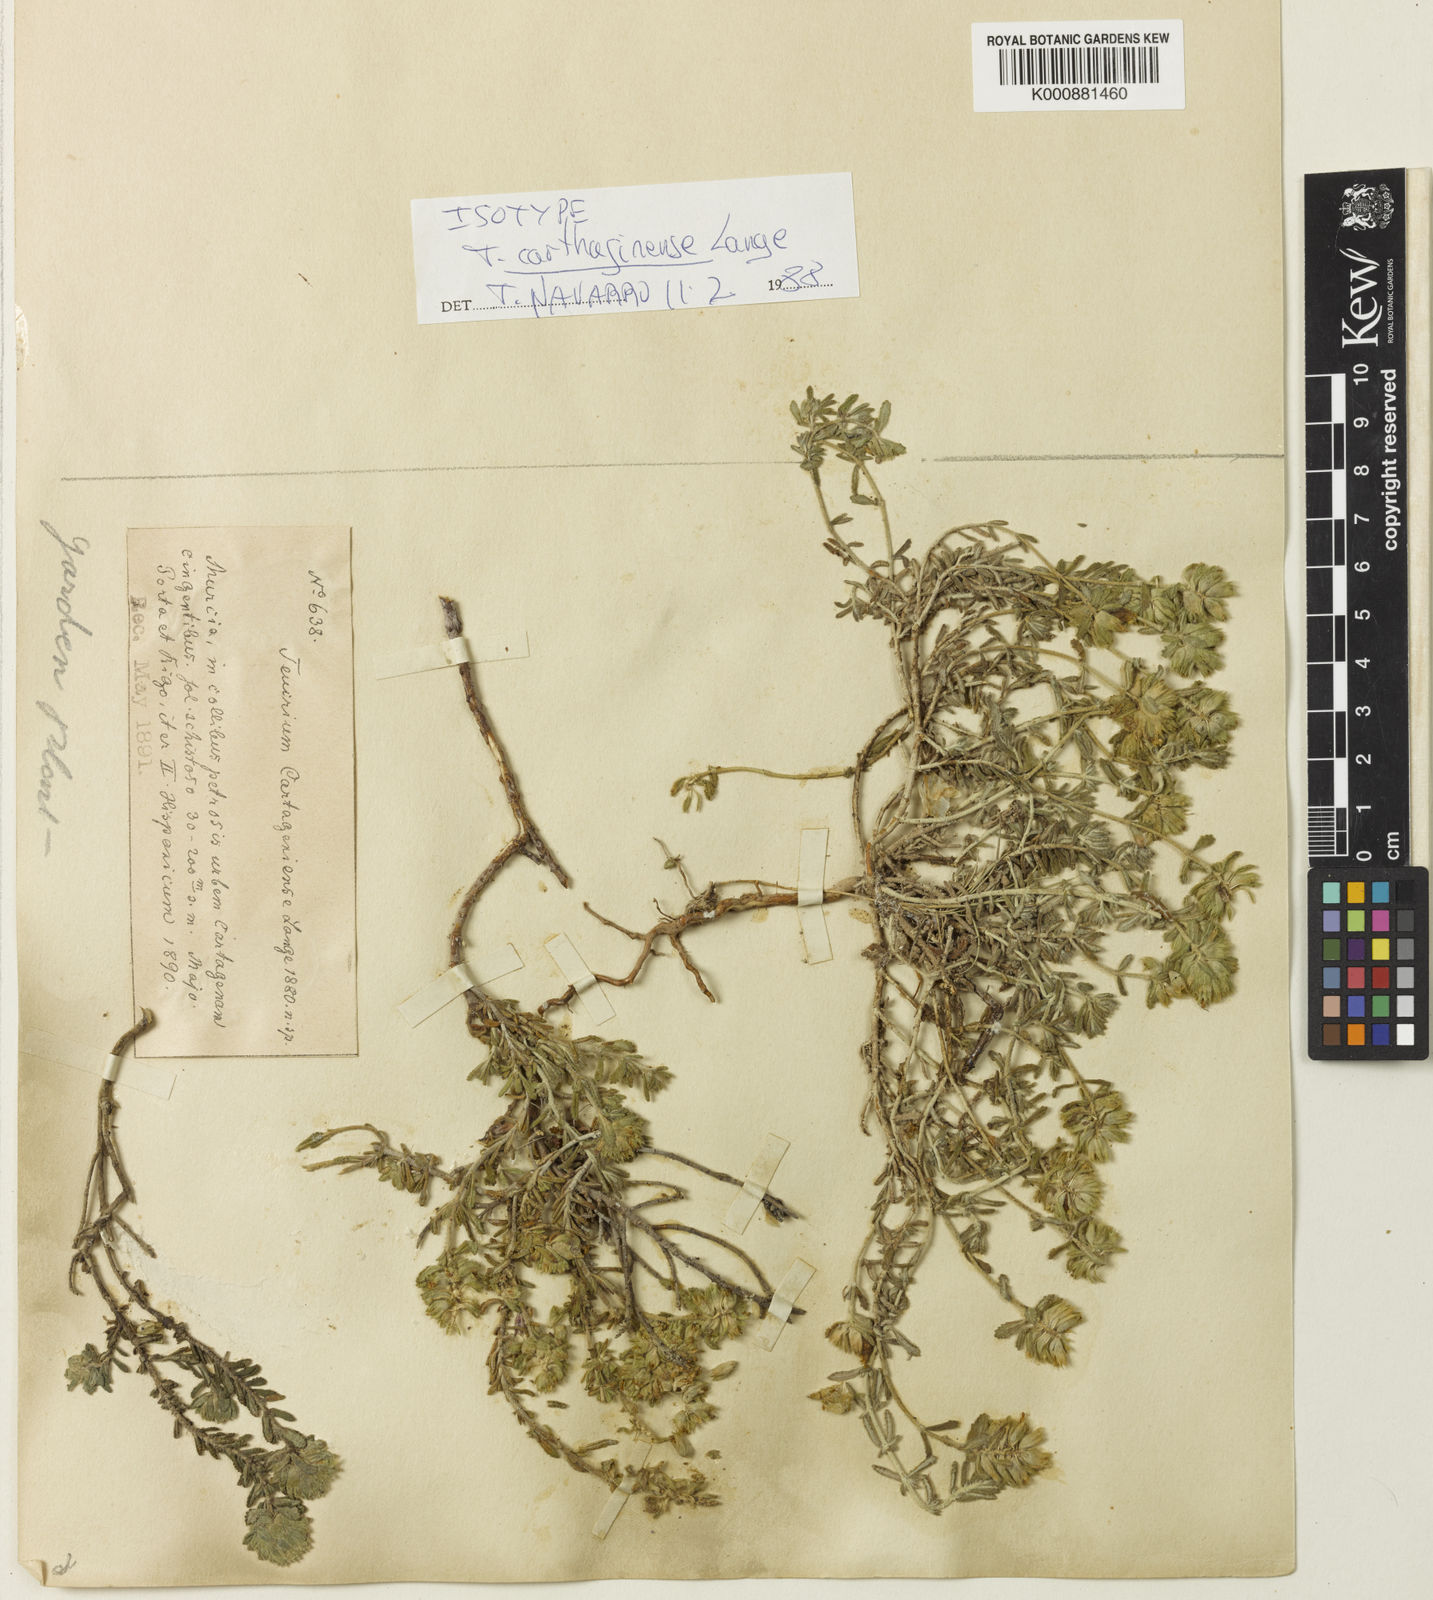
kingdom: Plantae
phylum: Tracheophyta
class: Magnoliopsida
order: Lamiales
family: Lamiaceae
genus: Teucrium
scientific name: Teucrium carthaginense
